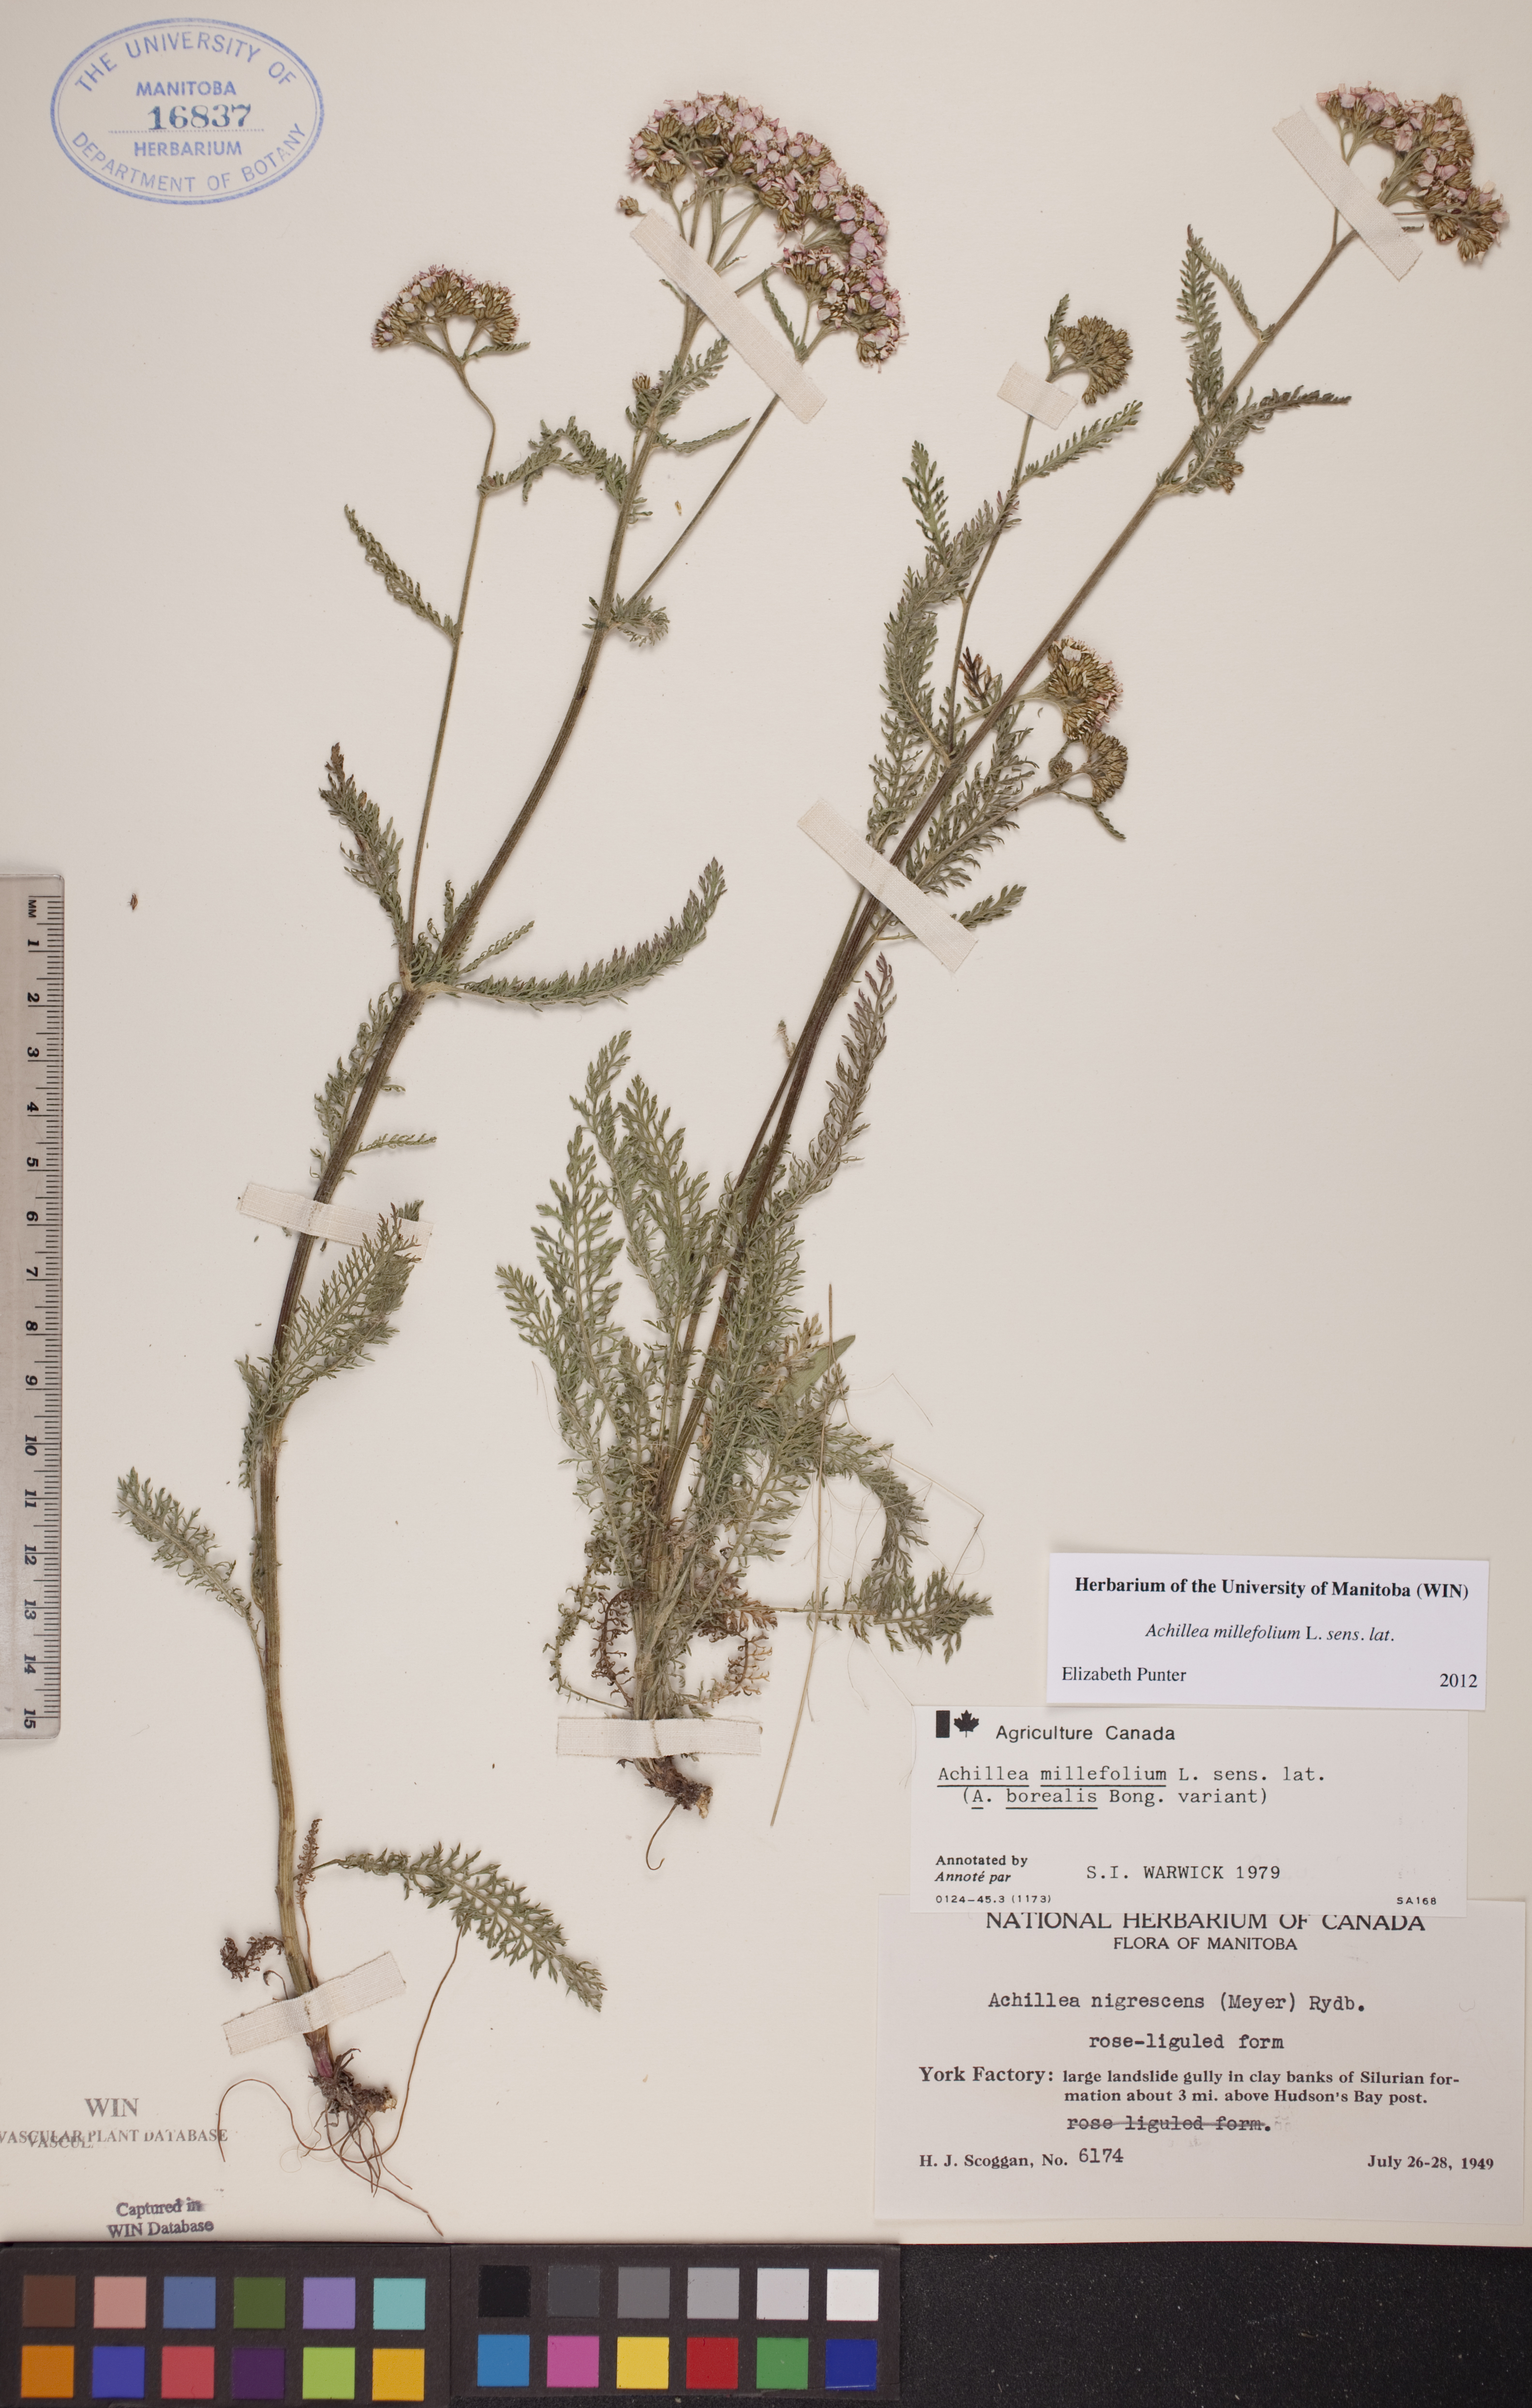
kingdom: Plantae
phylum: Tracheophyta
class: Magnoliopsida
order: Asterales
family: Asteraceae
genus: Achillea
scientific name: Achillea millefolium
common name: Yarrow
